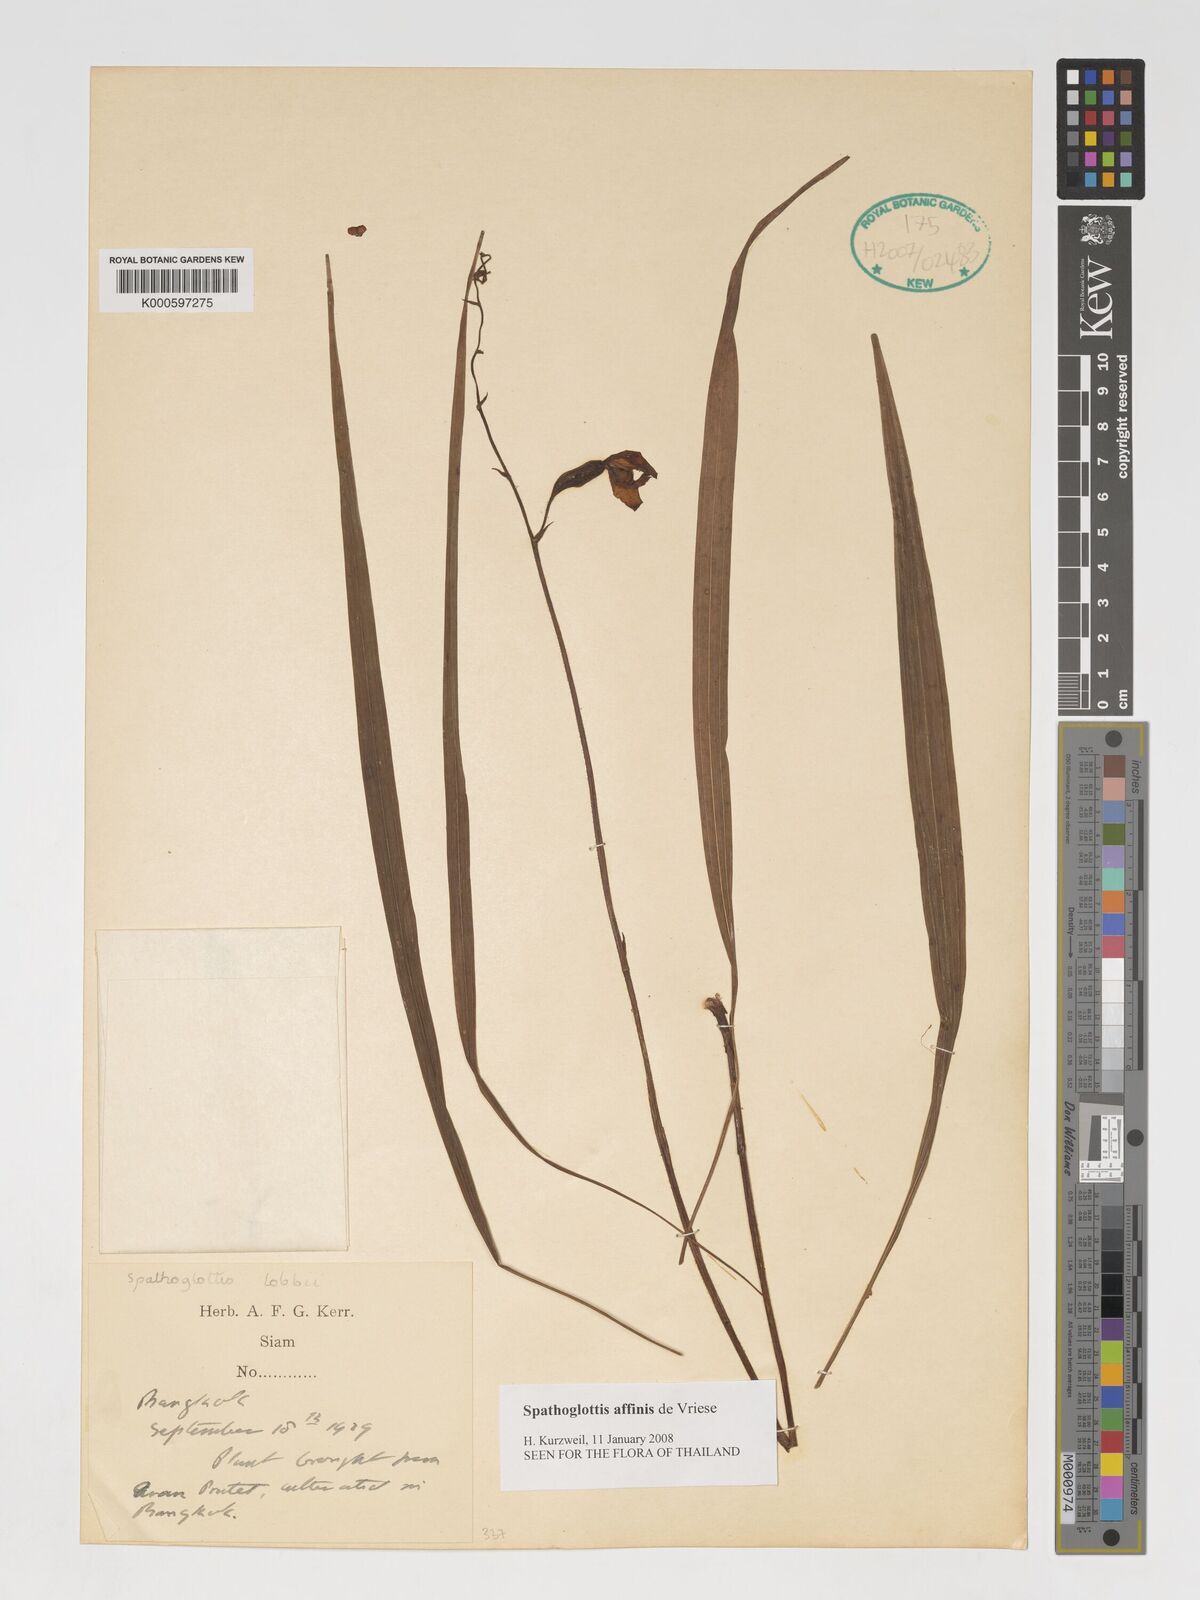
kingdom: Plantae
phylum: Tracheophyta
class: Liliopsida
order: Asparagales
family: Orchidaceae
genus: Spathoglottis
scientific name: Spathoglottis affinis
